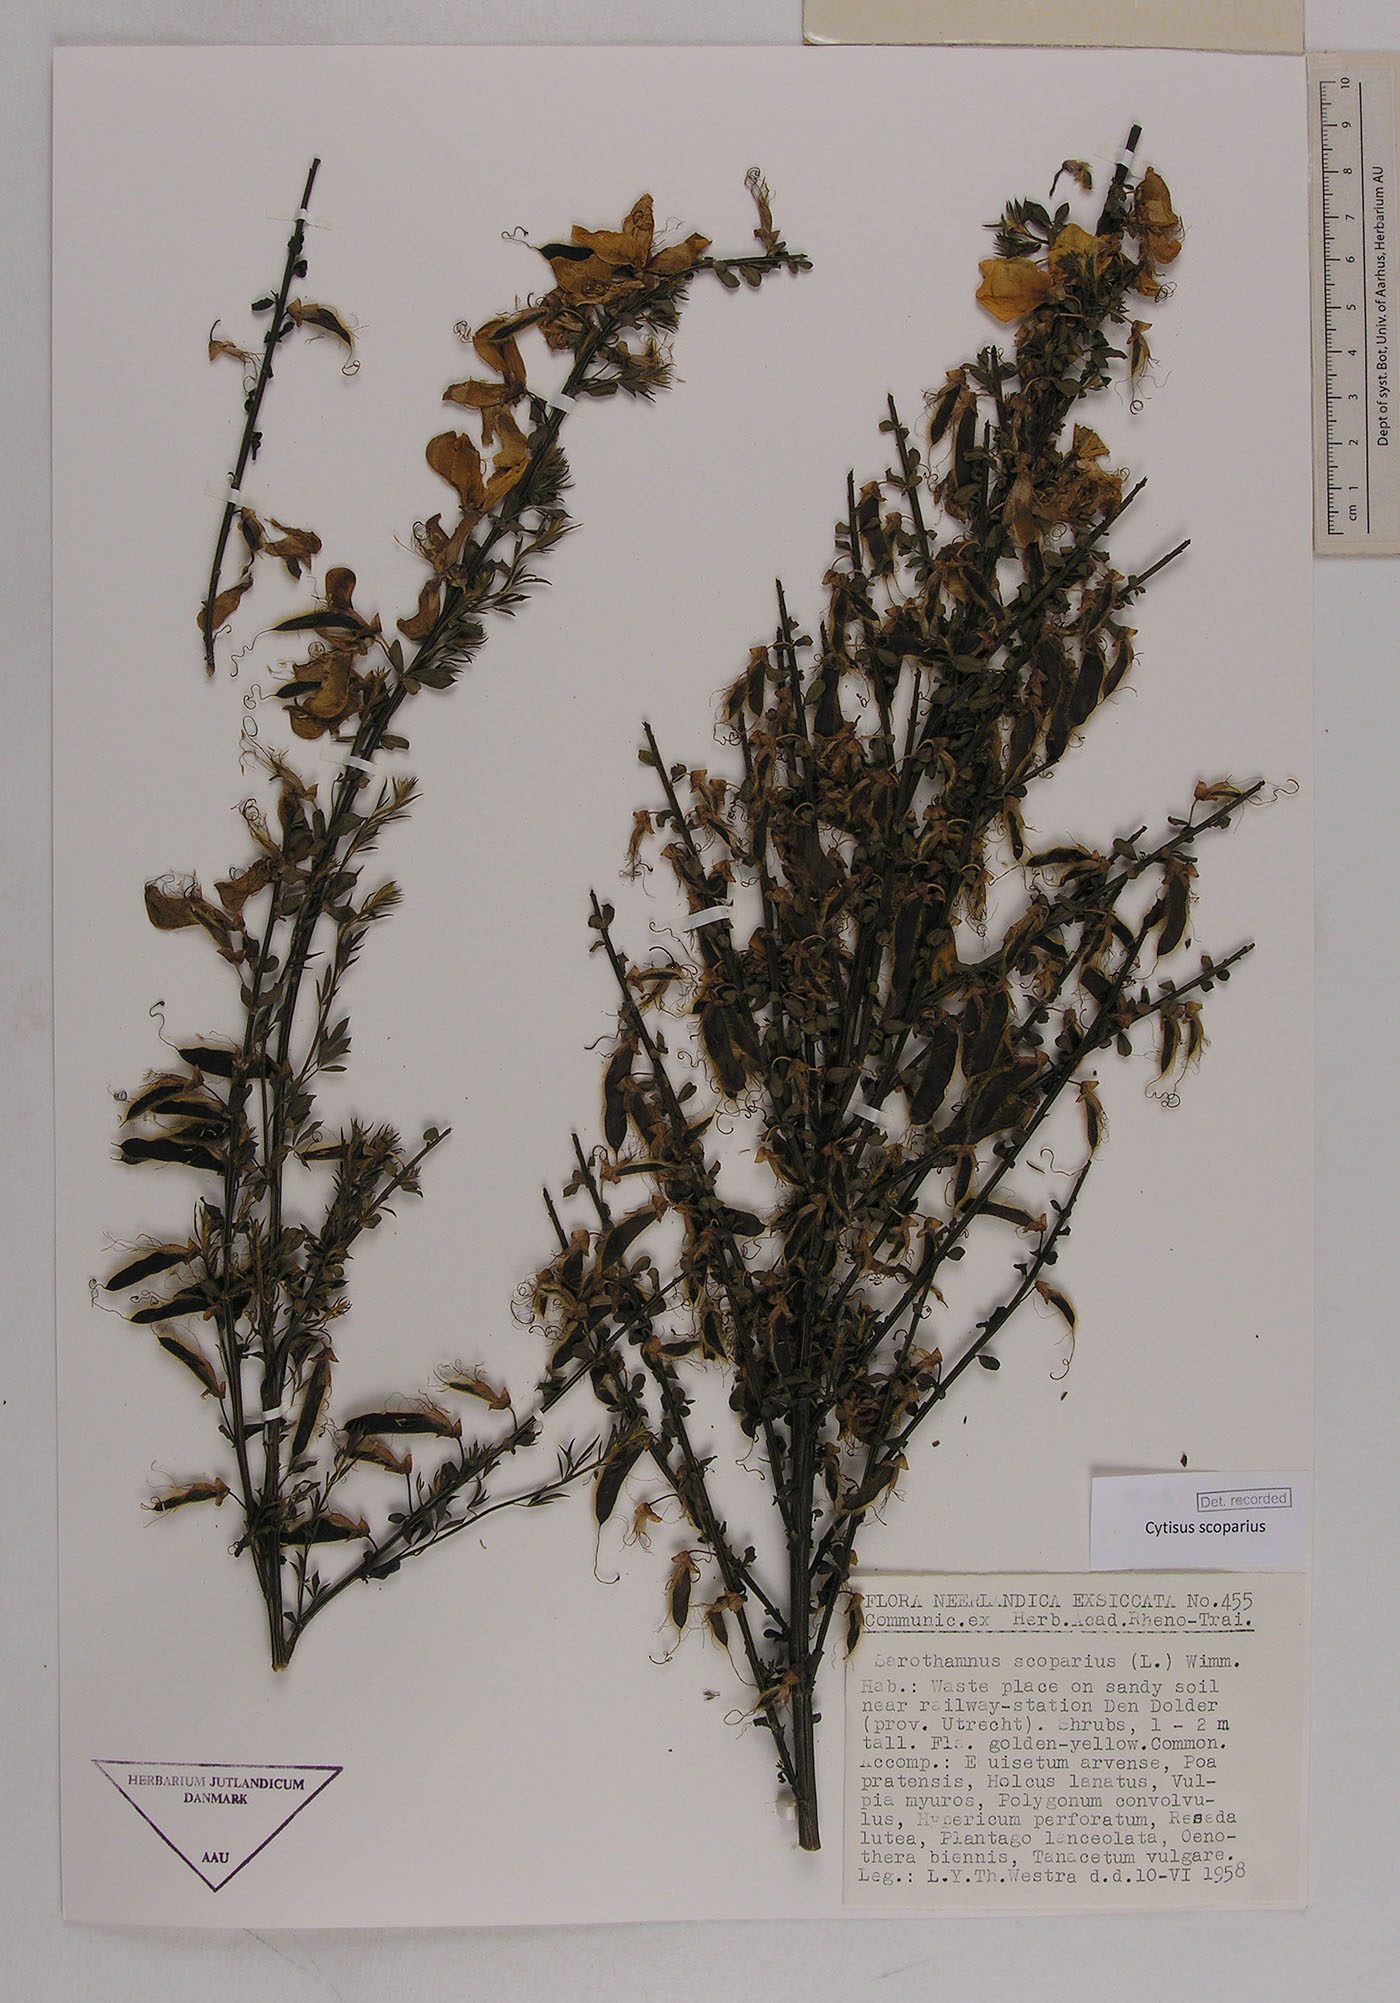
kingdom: Plantae
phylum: Tracheophyta
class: Magnoliopsida
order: Fabales
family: Fabaceae
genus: Cytisus
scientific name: Cytisus scoparius
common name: Scotch broom
